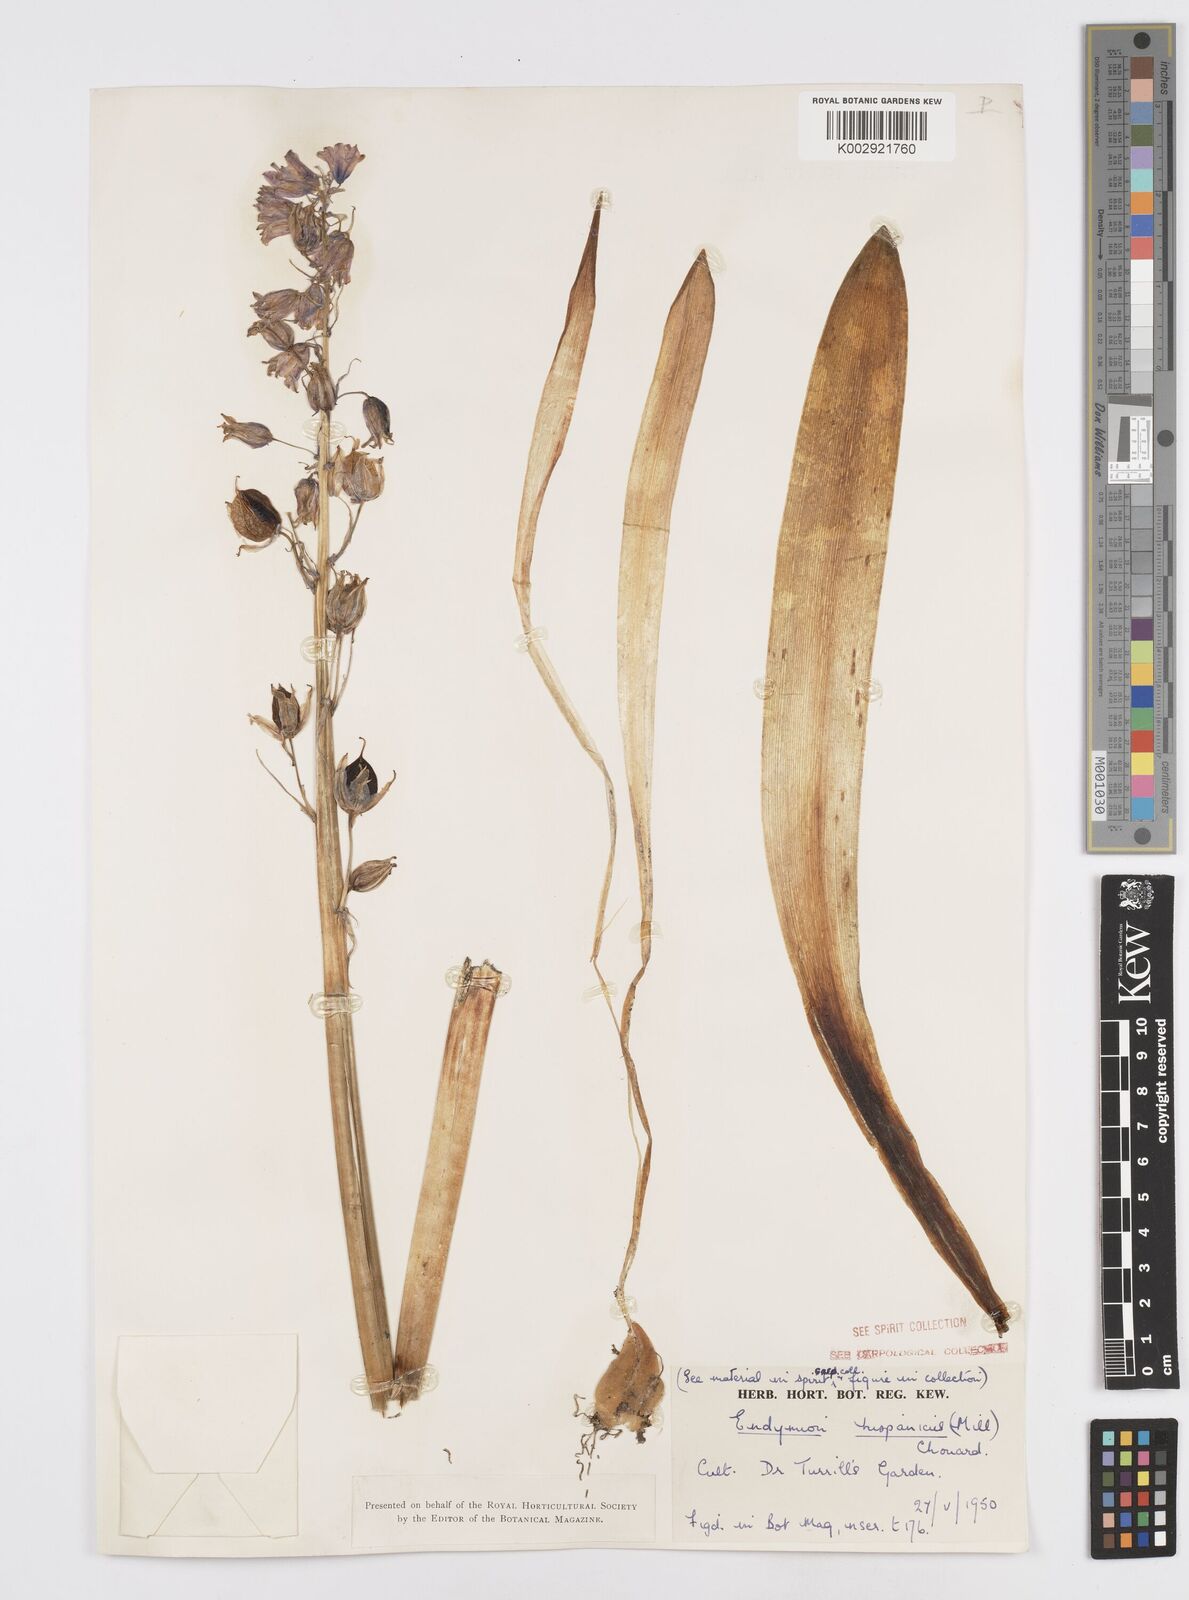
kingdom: Plantae
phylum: Tracheophyta
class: Liliopsida
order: Asparagales
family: Asparagaceae
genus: Hyacinthoides
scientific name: Hyacinthoides hispanica
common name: Spanish bluebell
